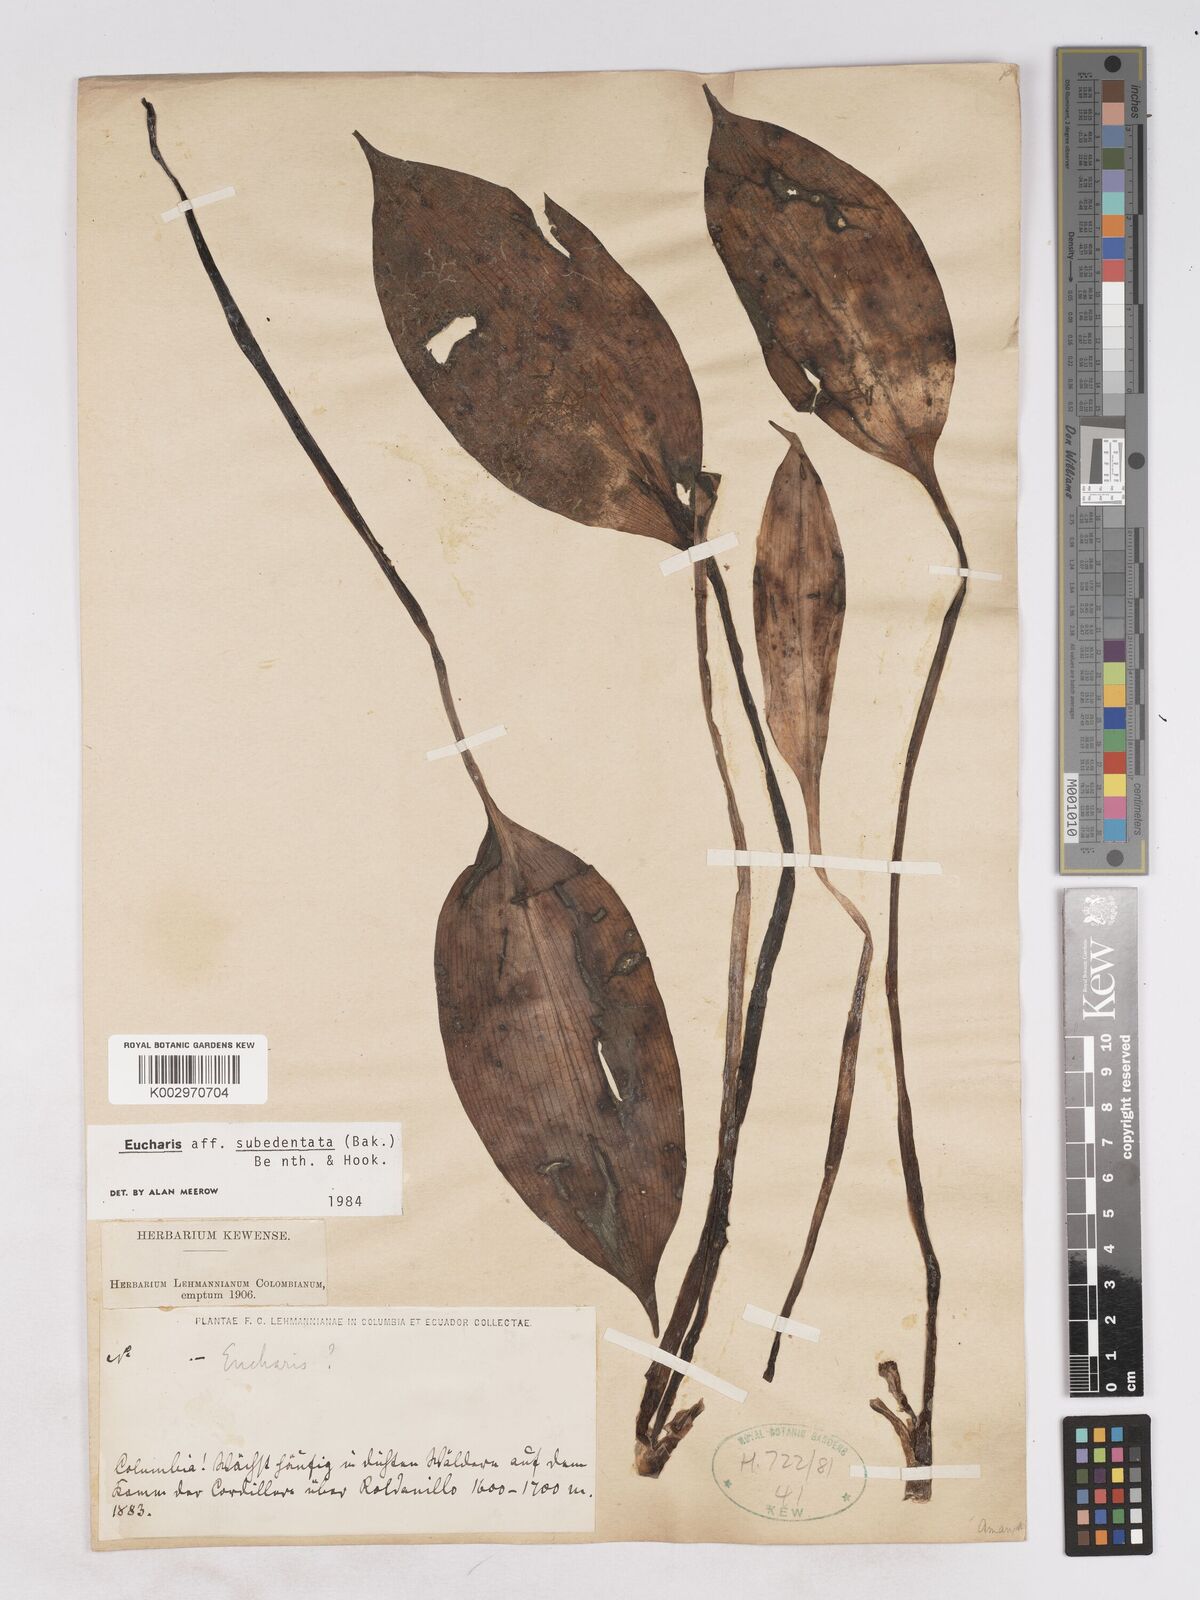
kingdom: Plantae
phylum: Tracheophyta
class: Liliopsida
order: Asparagales
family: Amaryllidaceae
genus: Urceolina
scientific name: Urceolina subedentata
